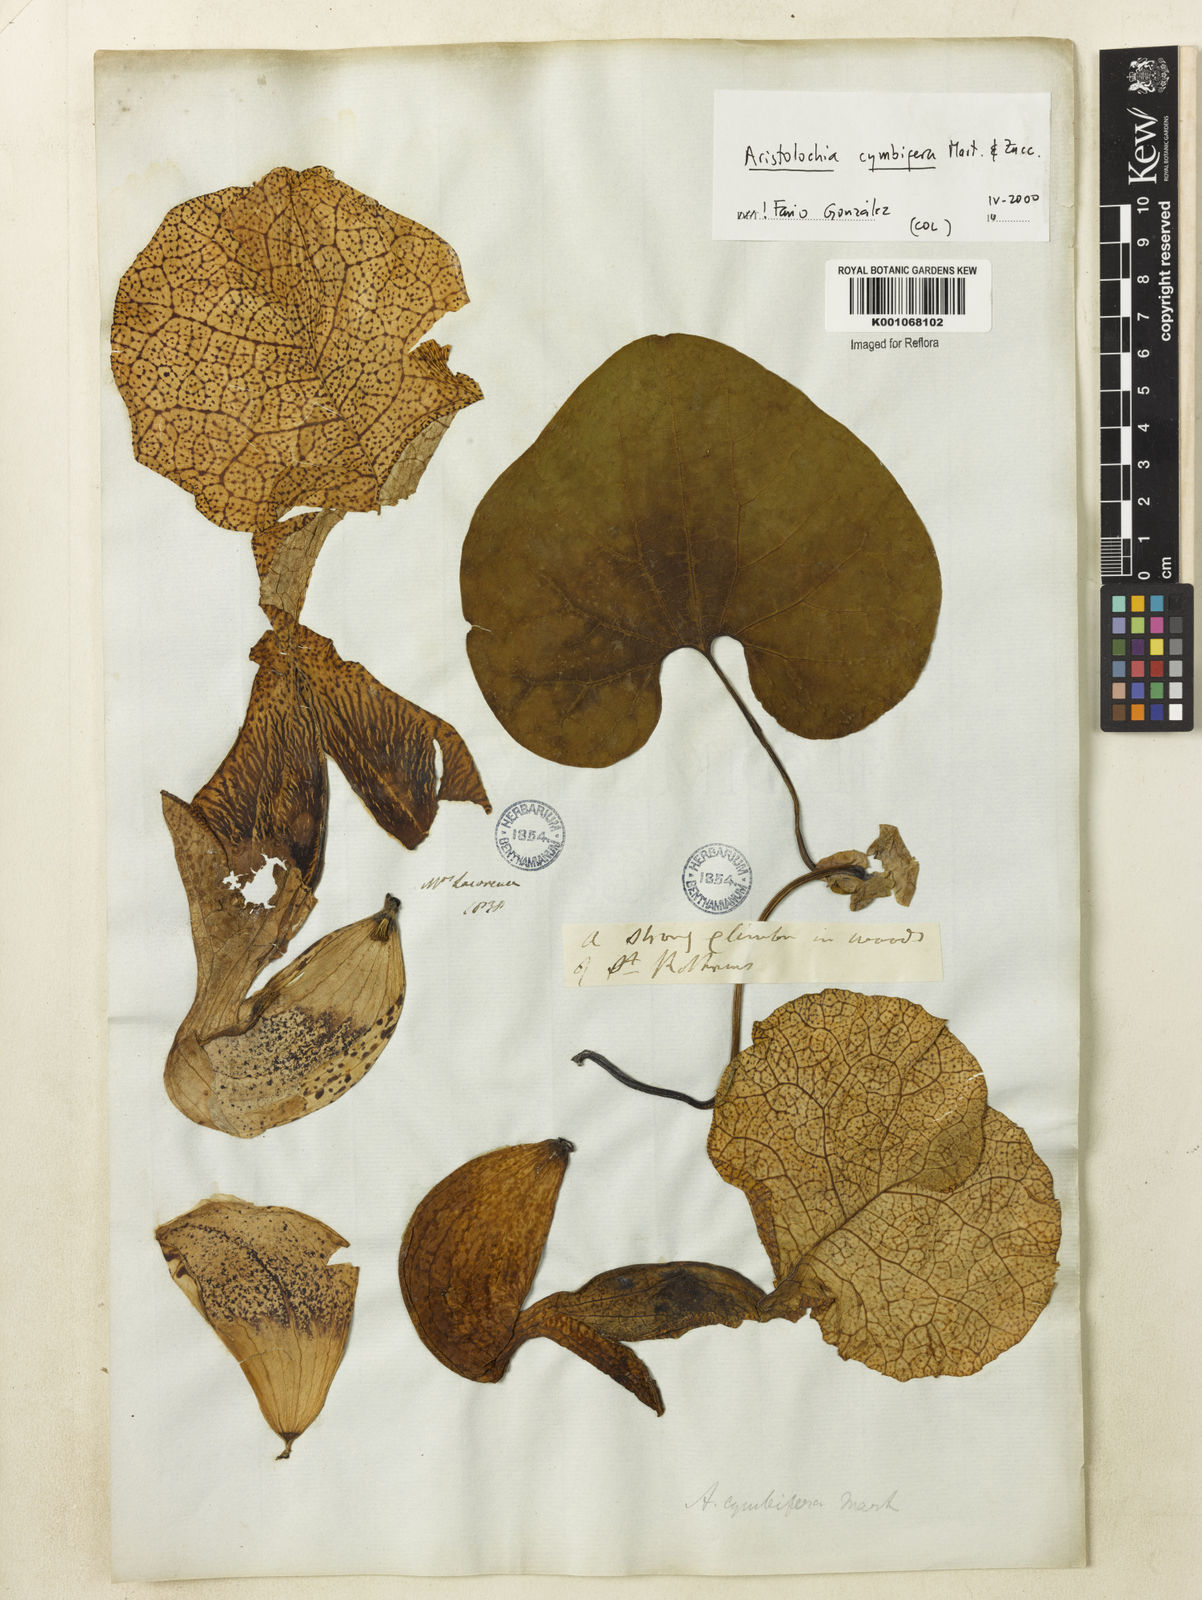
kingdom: Plantae
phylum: Tracheophyta
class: Magnoliopsida
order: Piperales
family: Aristolochiaceae
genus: Aristolochia
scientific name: Aristolochia cymbifera
